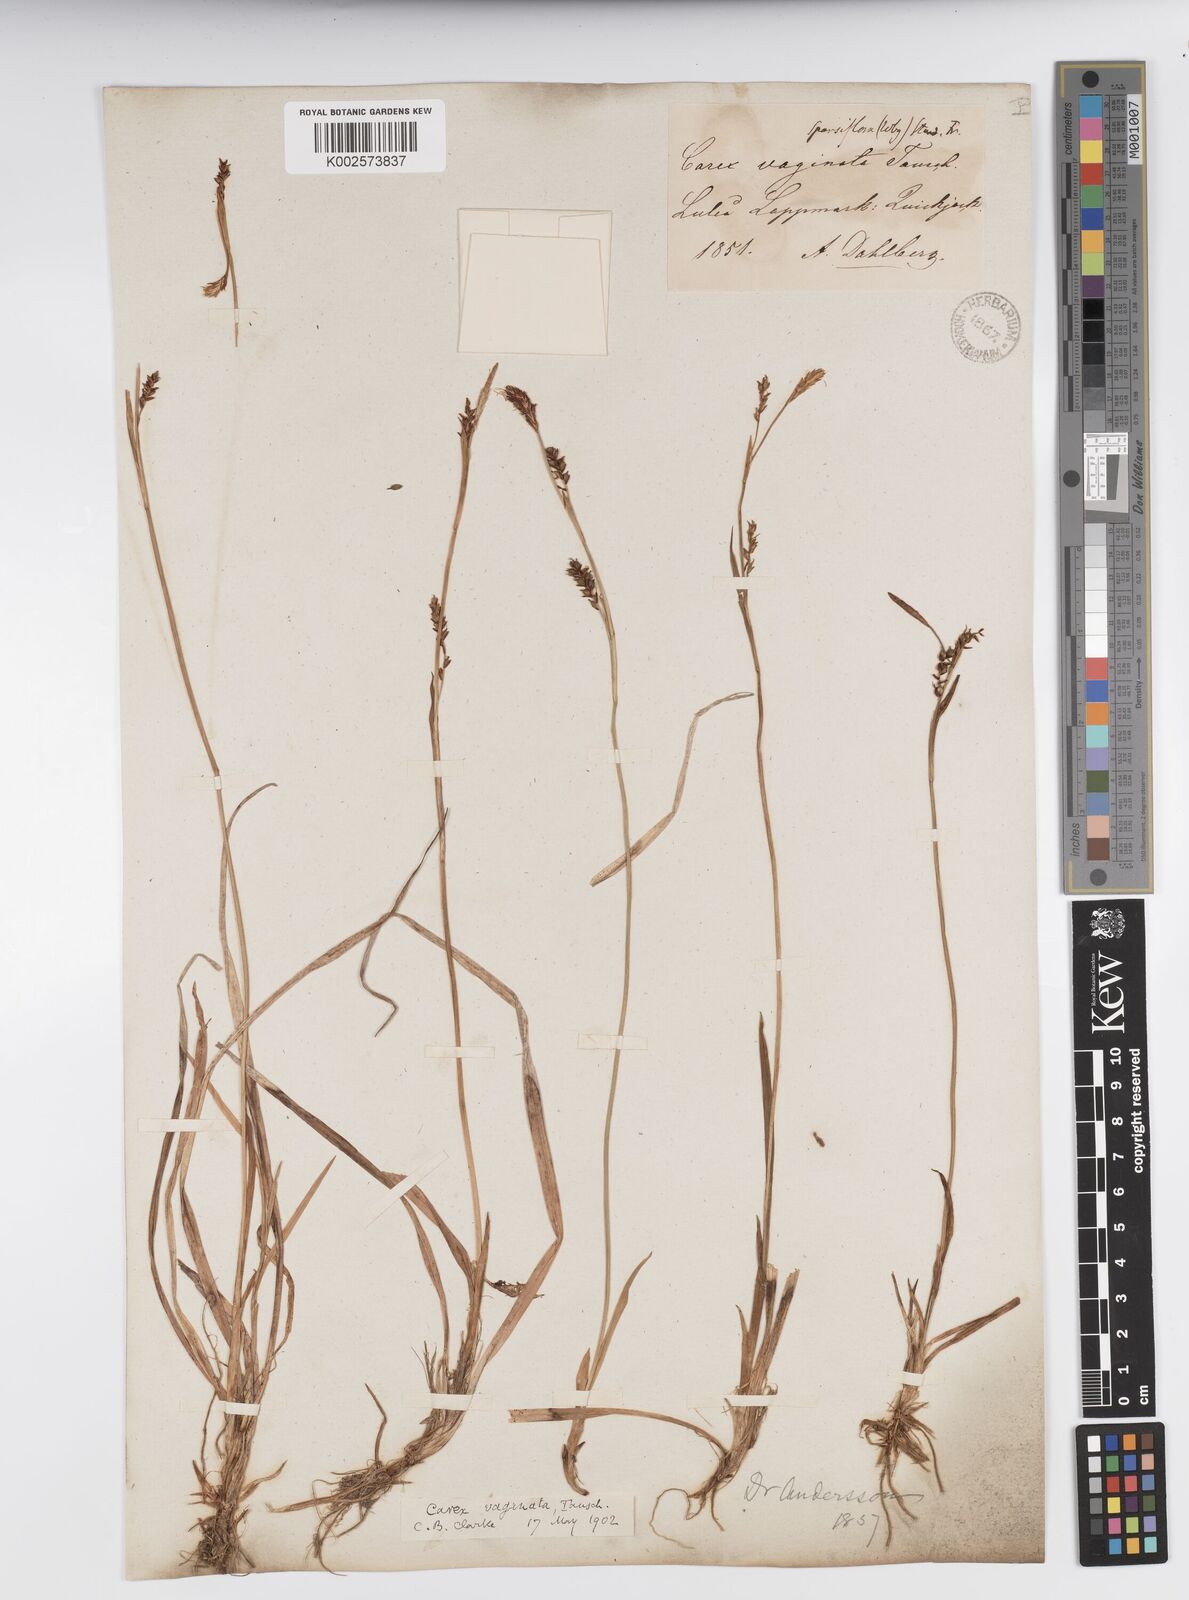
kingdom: Plantae
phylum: Tracheophyta
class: Liliopsida
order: Poales
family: Cyperaceae
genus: Carex
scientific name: Carex vaginata
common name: Sheathed sedge
